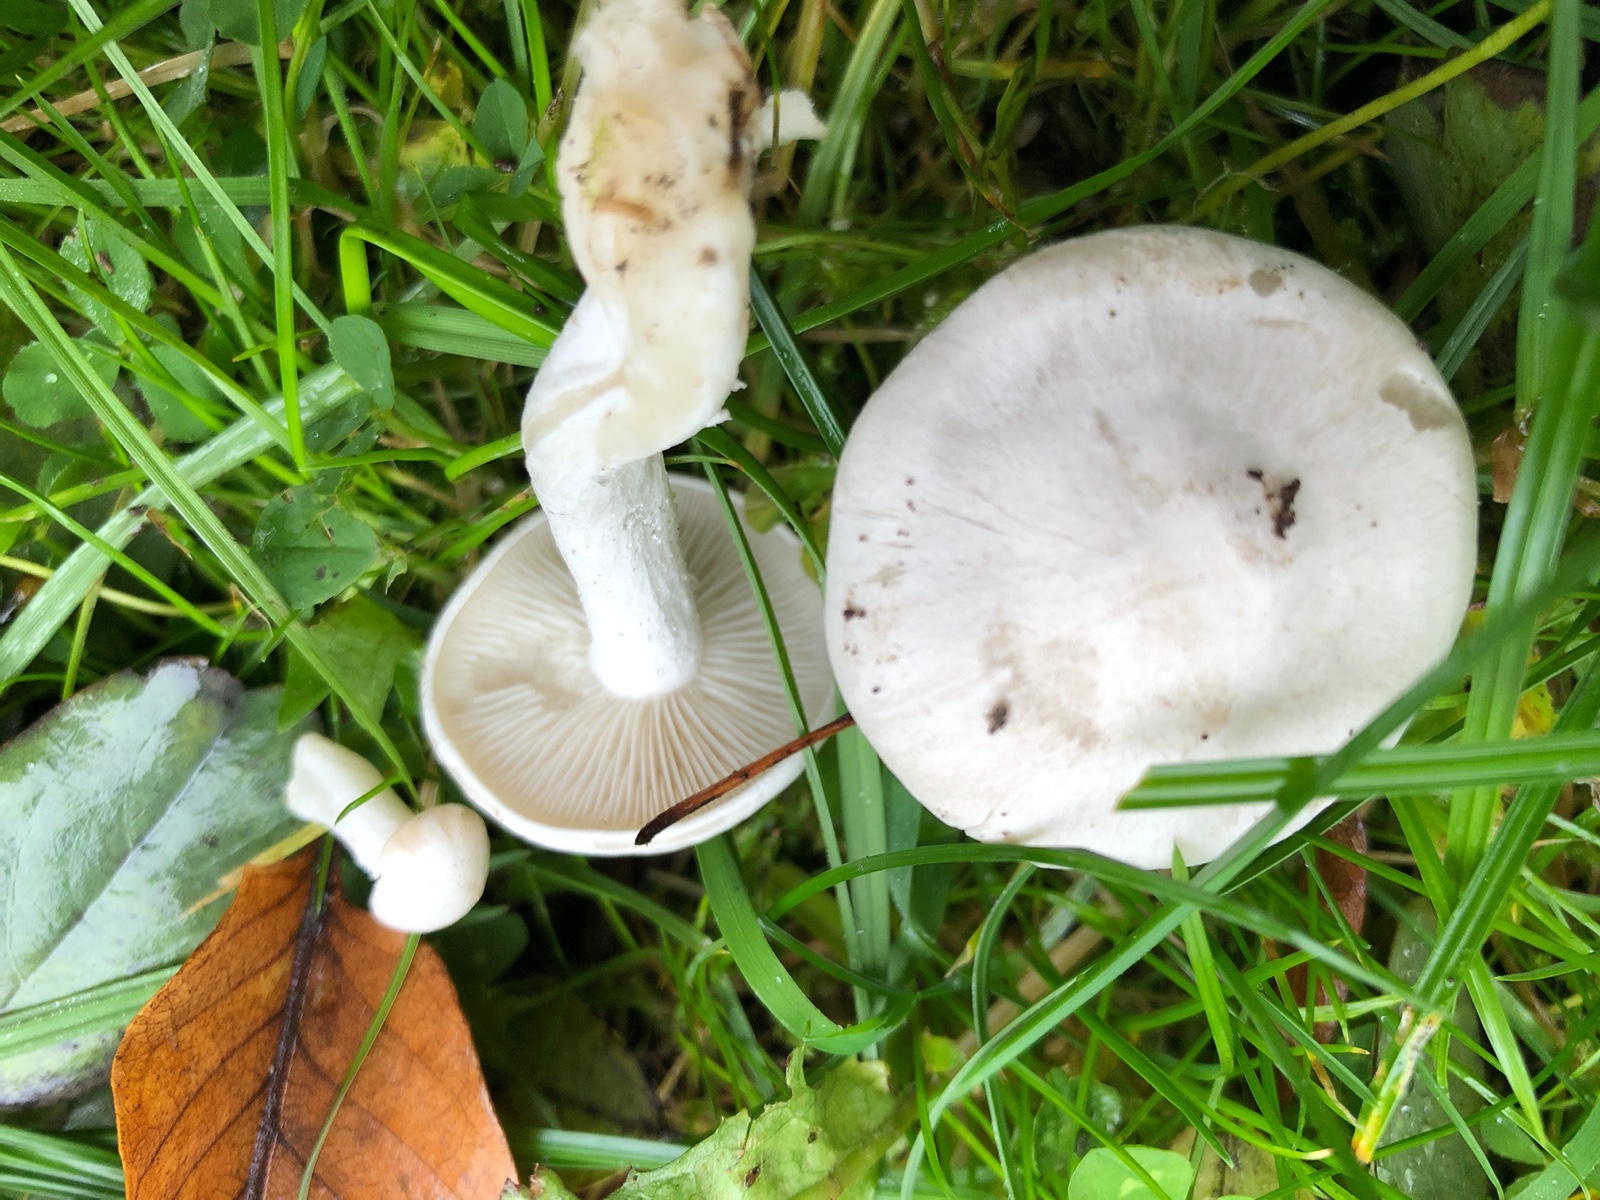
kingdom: Fungi
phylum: Basidiomycota
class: Agaricomycetes
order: Agaricales
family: Entolomataceae
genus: Clitopilus
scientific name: Clitopilus prunulus
